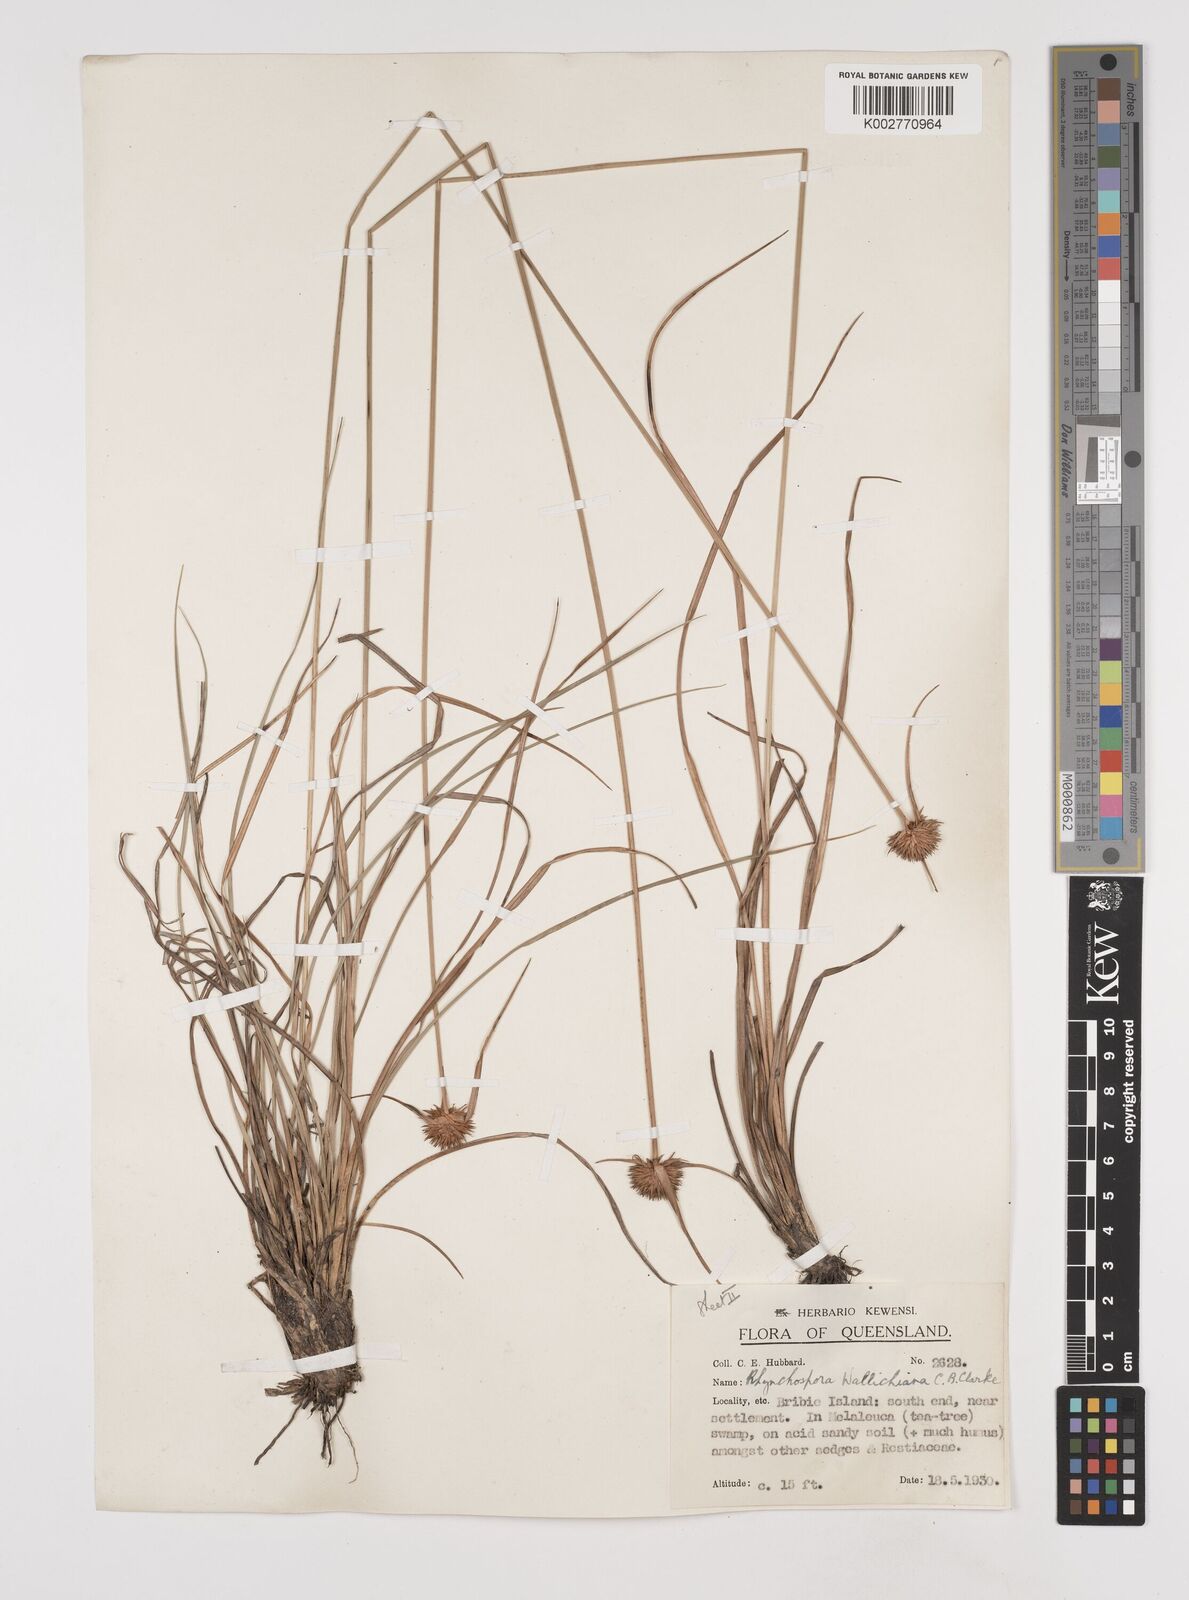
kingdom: Plantae
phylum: Tracheophyta
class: Liliopsida
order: Poales
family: Cyperaceae
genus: Rhynchospora
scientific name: Rhynchospora rubra
